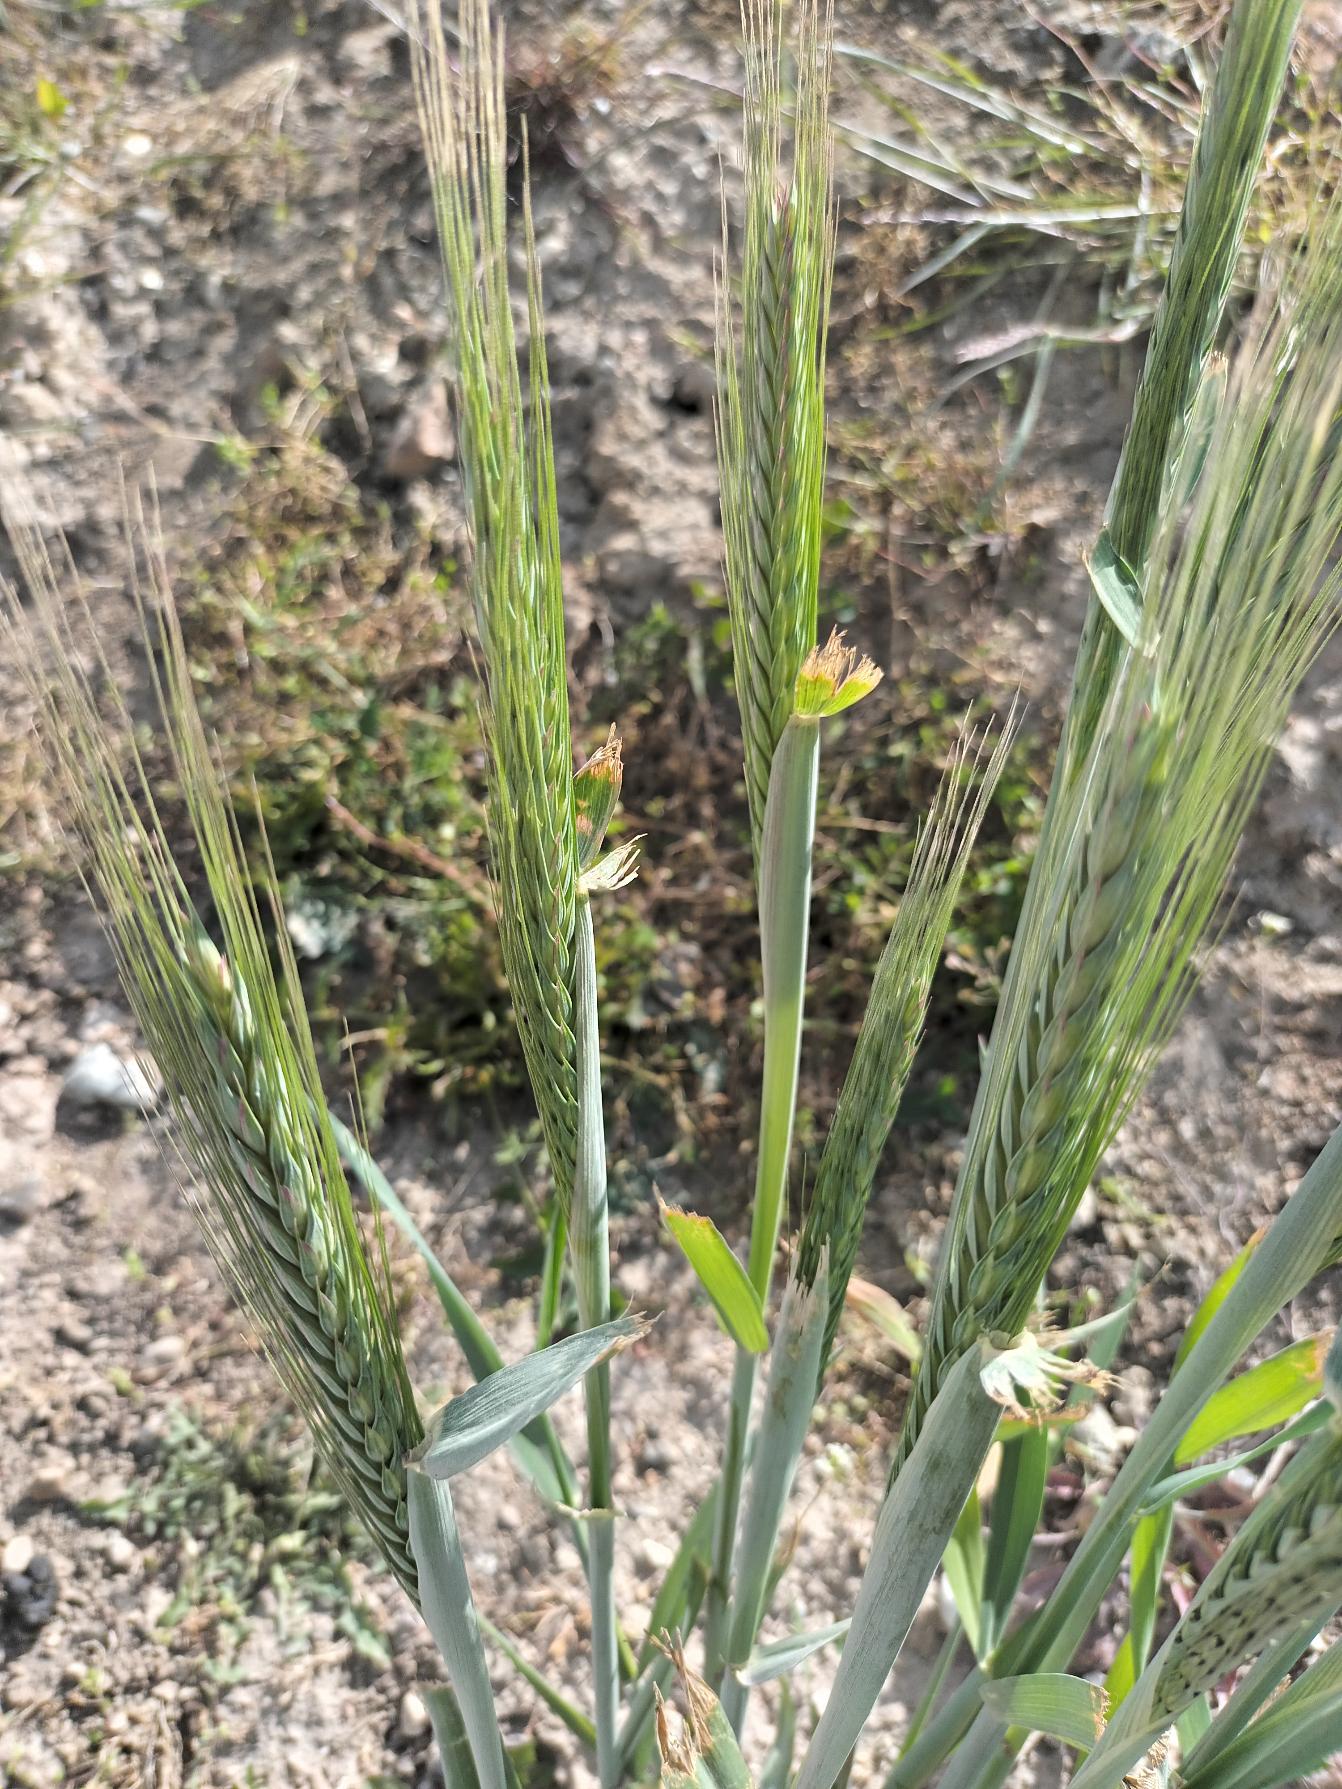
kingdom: Plantae
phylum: Tracheophyta
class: Liliopsida
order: Poales
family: Poaceae
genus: Hordeum
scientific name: Hordeum vulgare
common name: Seksradet byg
